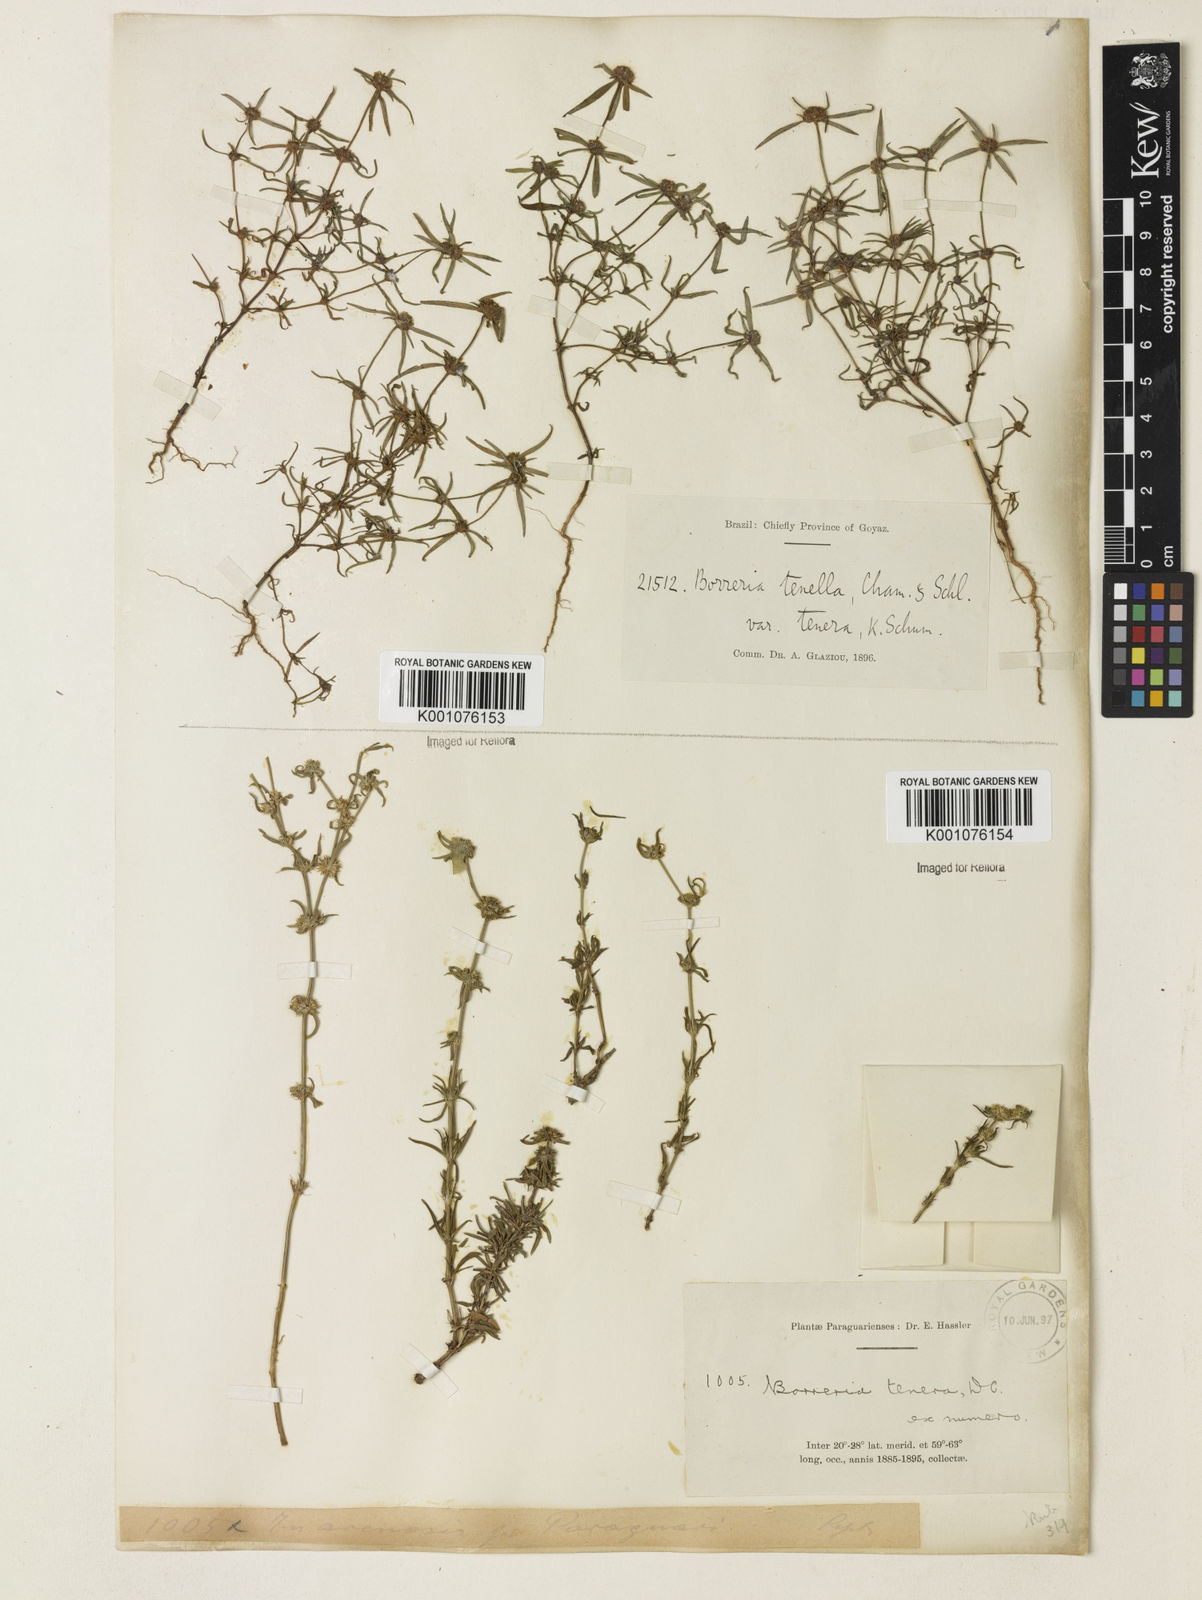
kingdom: Plantae
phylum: Tracheophyta
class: Magnoliopsida
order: Gentianales
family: Rubiaceae
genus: Spermacoce
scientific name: Spermacoce ocymoides
